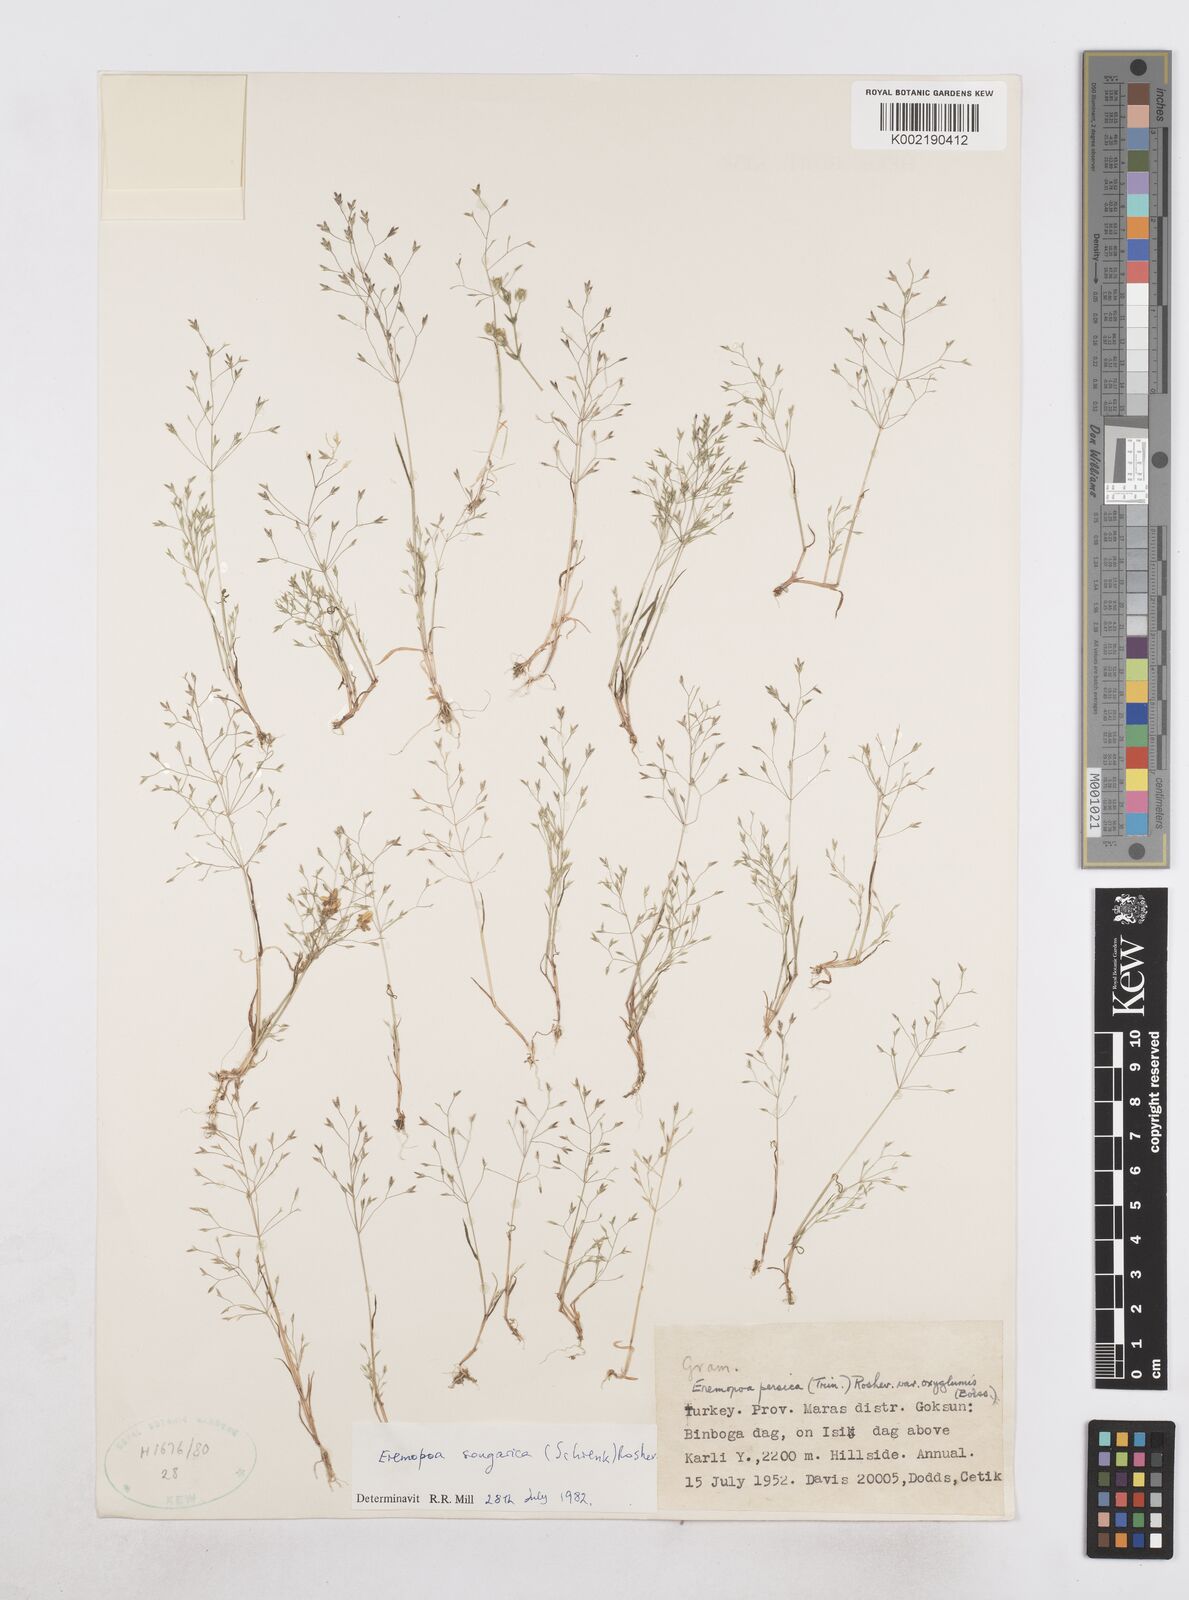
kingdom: Plantae
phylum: Tracheophyta
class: Liliopsida
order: Poales
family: Poaceae
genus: Poa
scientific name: Poa diaphora
